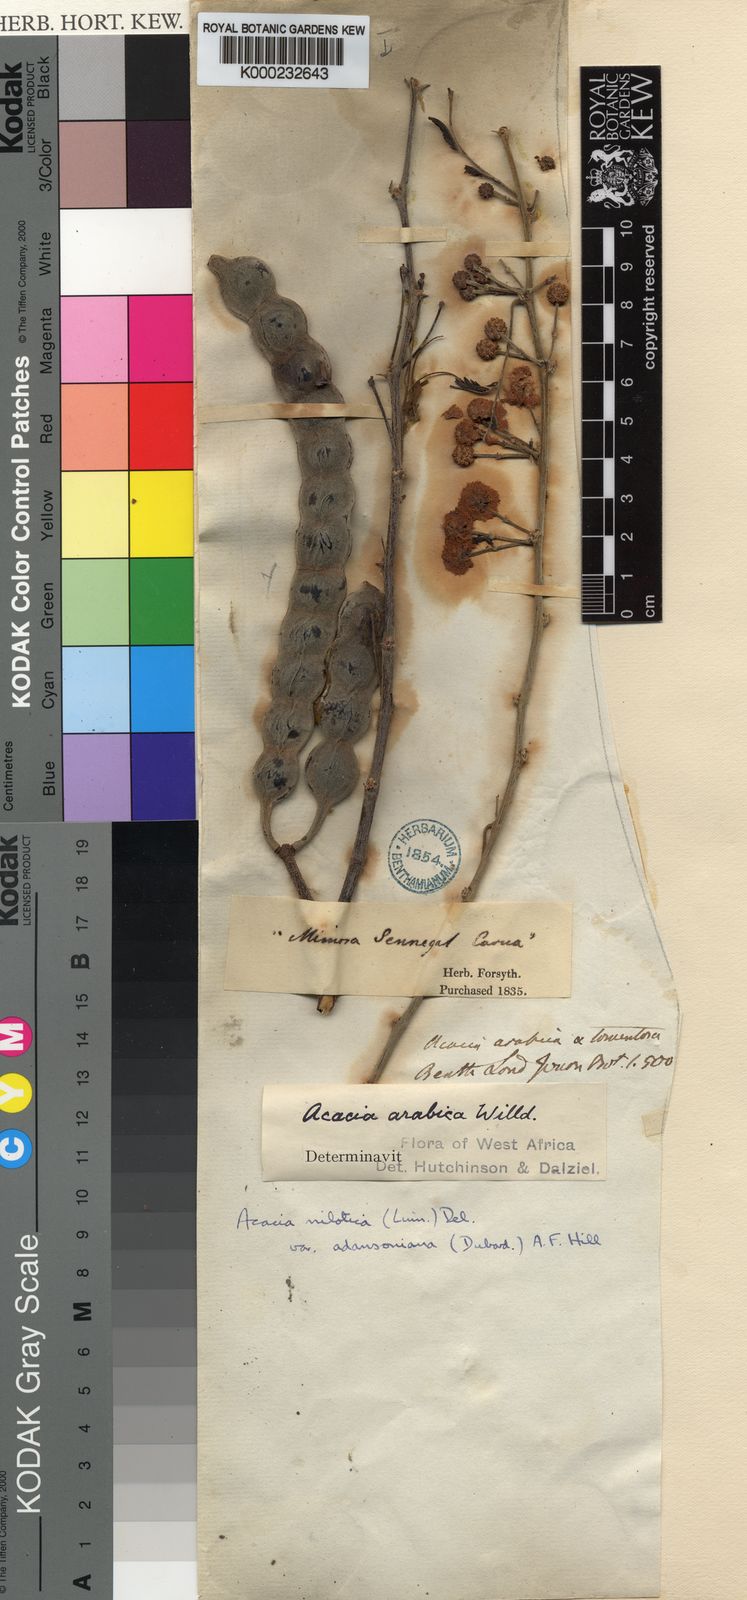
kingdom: Plantae
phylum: Tracheophyta
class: Magnoliopsida
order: Fabales
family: Fabaceae
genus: Vachellia
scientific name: Vachellia nilotica
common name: Arabic gumtree
